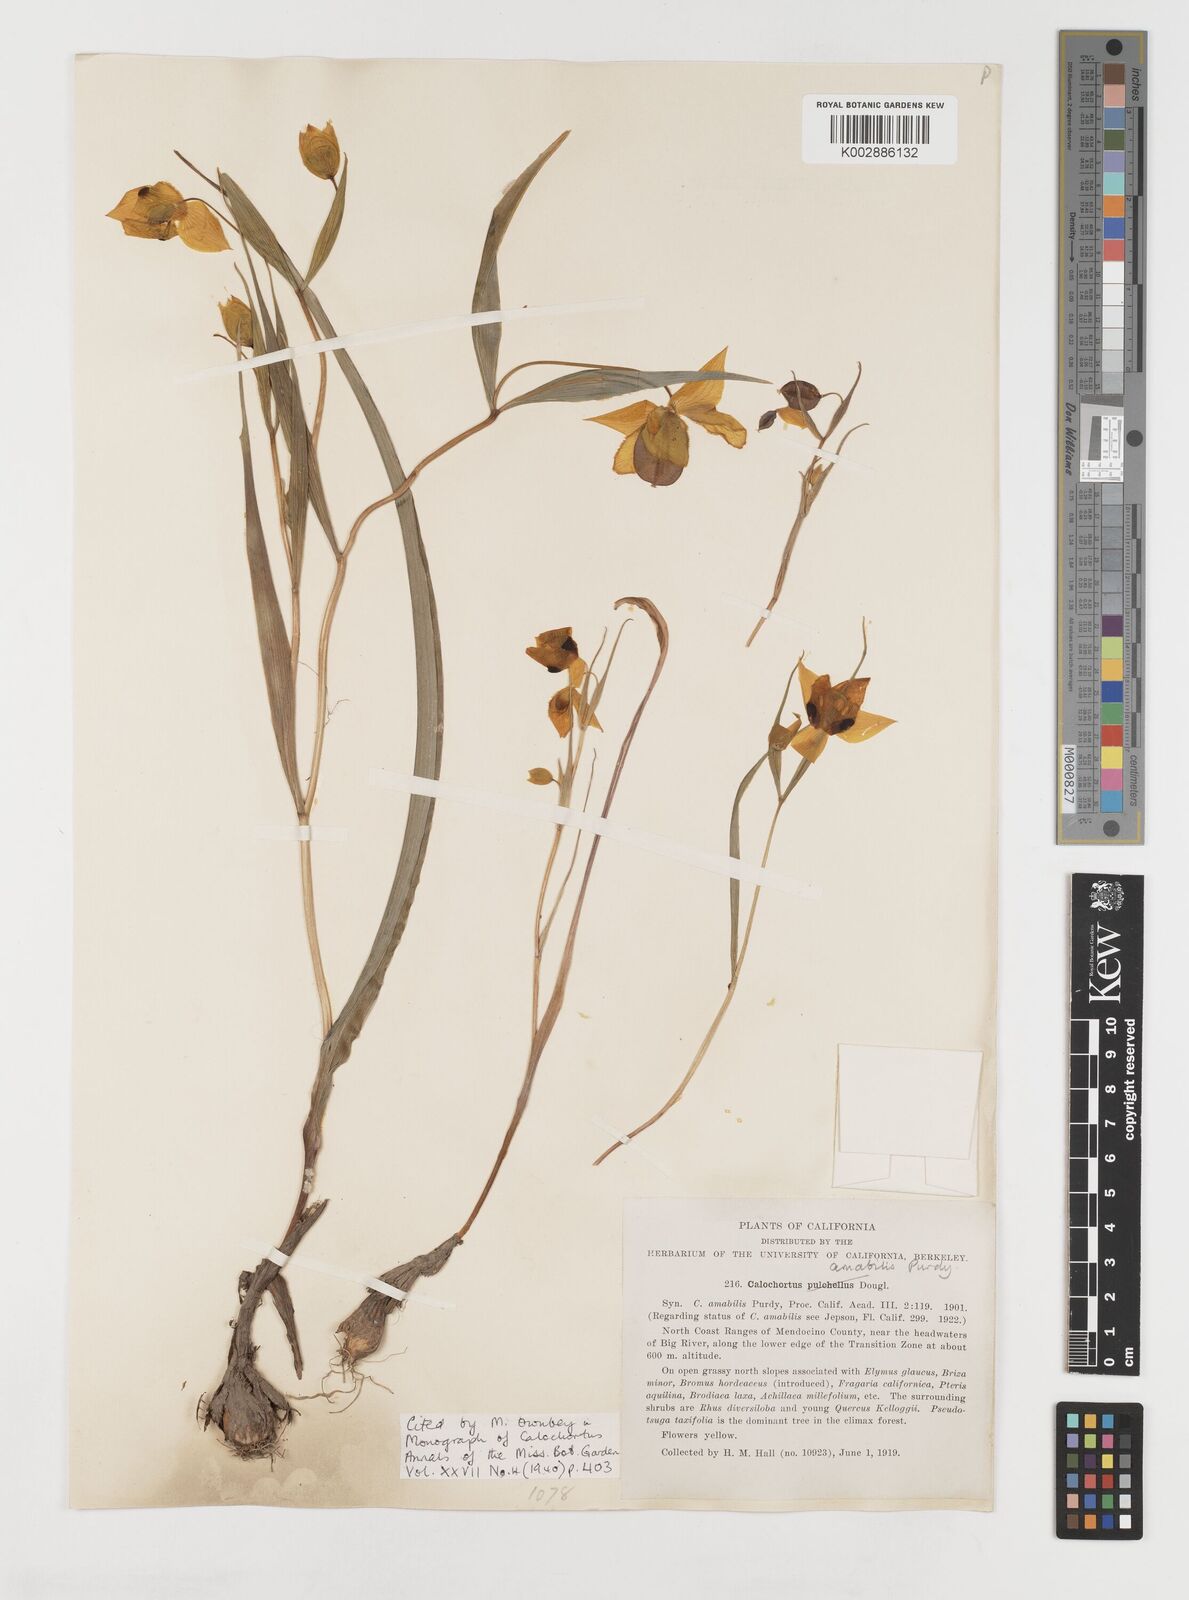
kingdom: Plantae
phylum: Tracheophyta
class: Liliopsida
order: Liliales
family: Liliaceae
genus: Calochortus
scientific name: Calochortus amabilis
